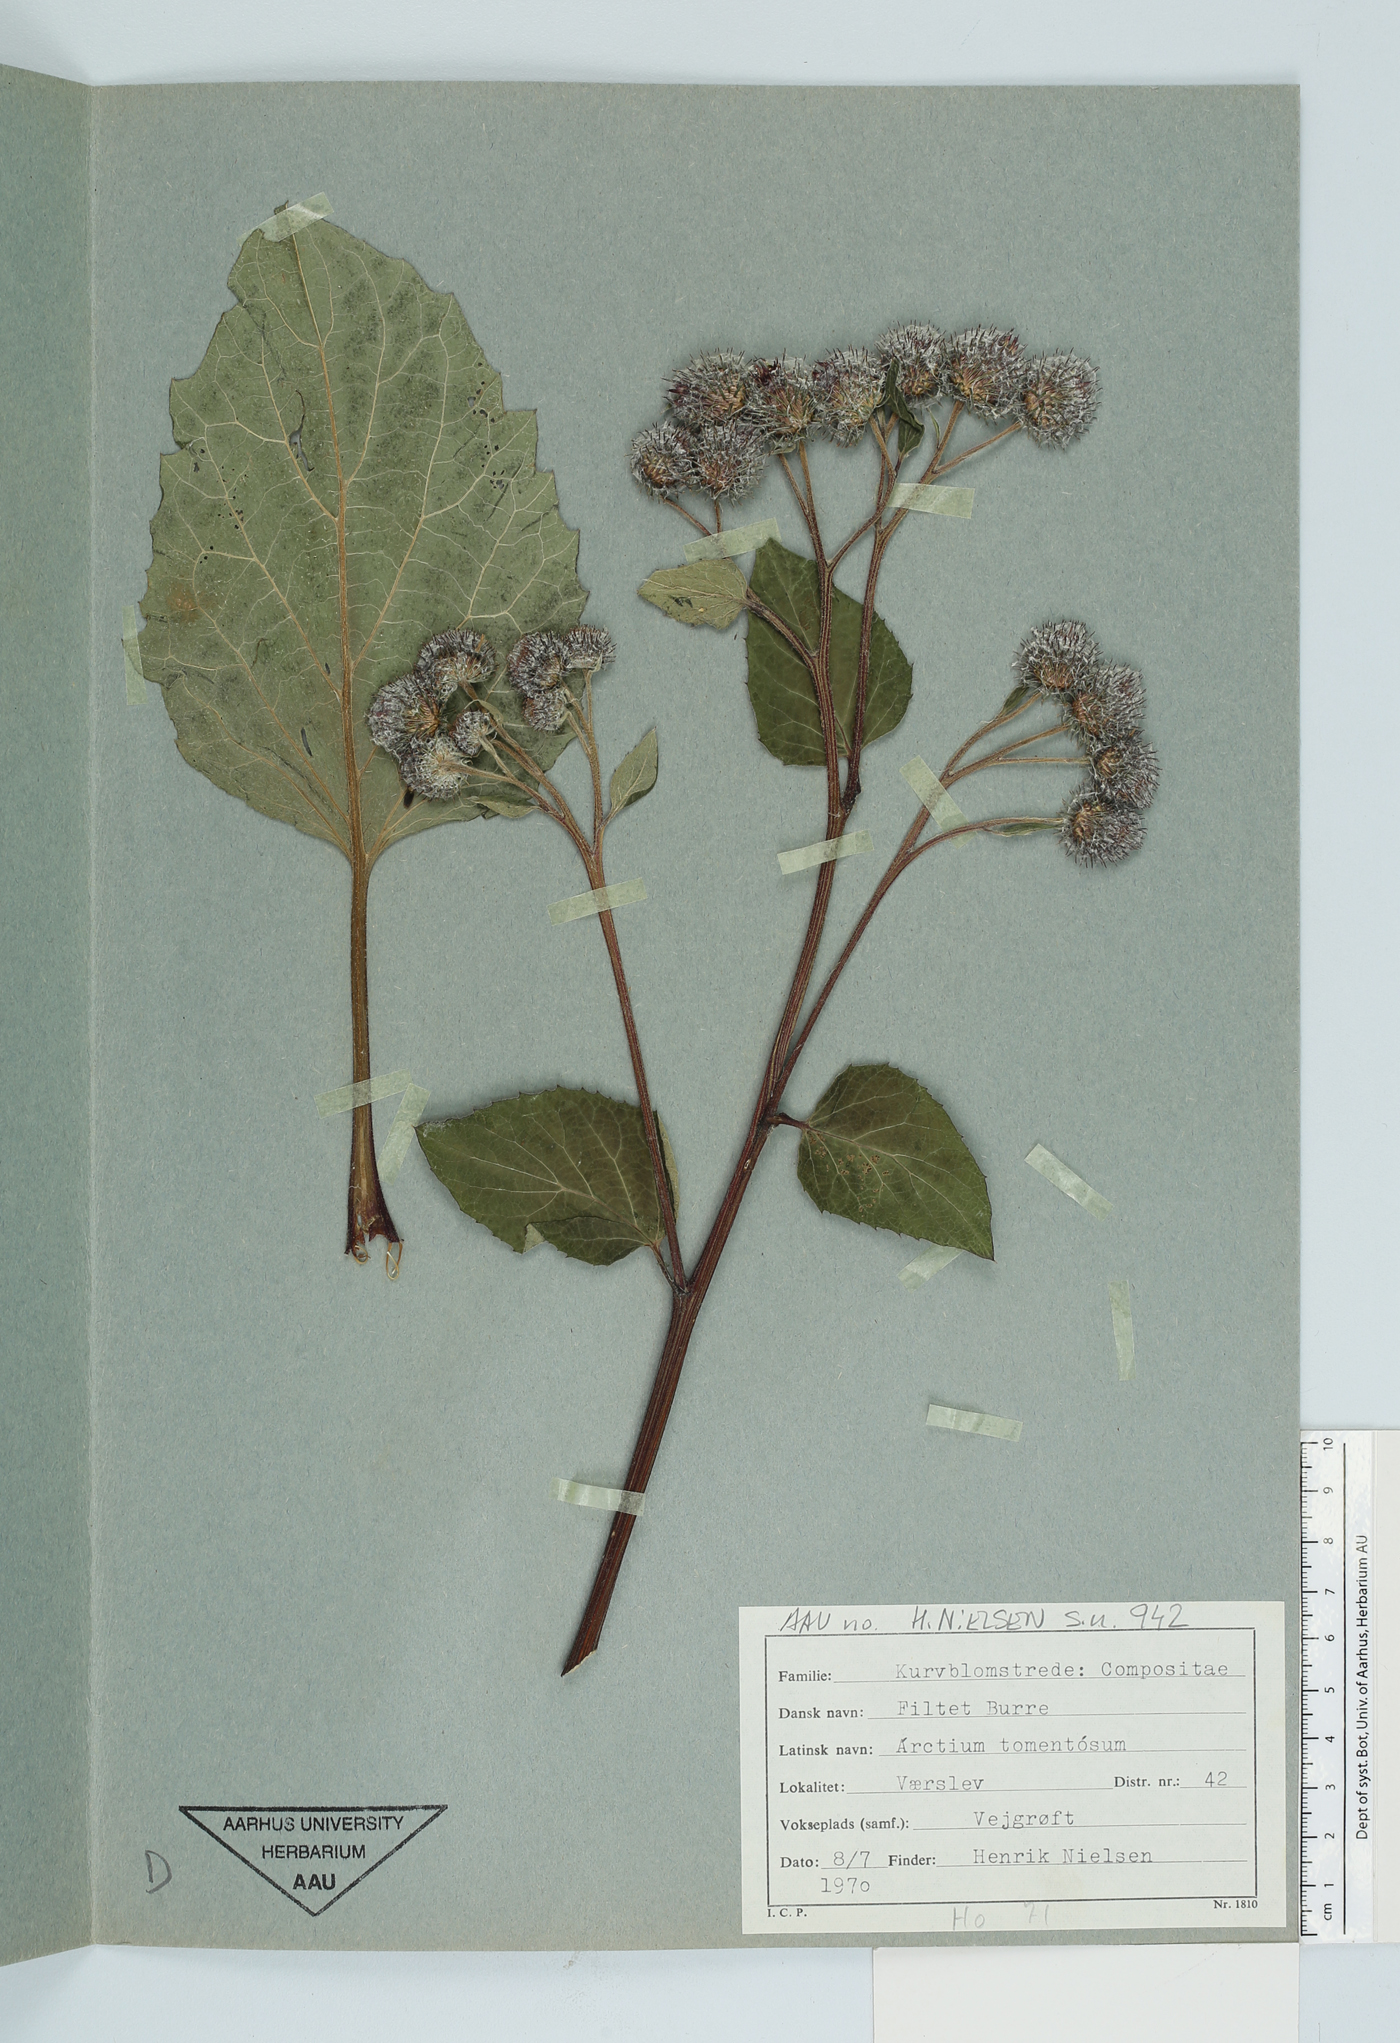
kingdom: Plantae
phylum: Tracheophyta
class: Magnoliopsida
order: Asterales
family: Asteraceae
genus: Arctium
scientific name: Arctium tomentosum
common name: Woolly burdock
